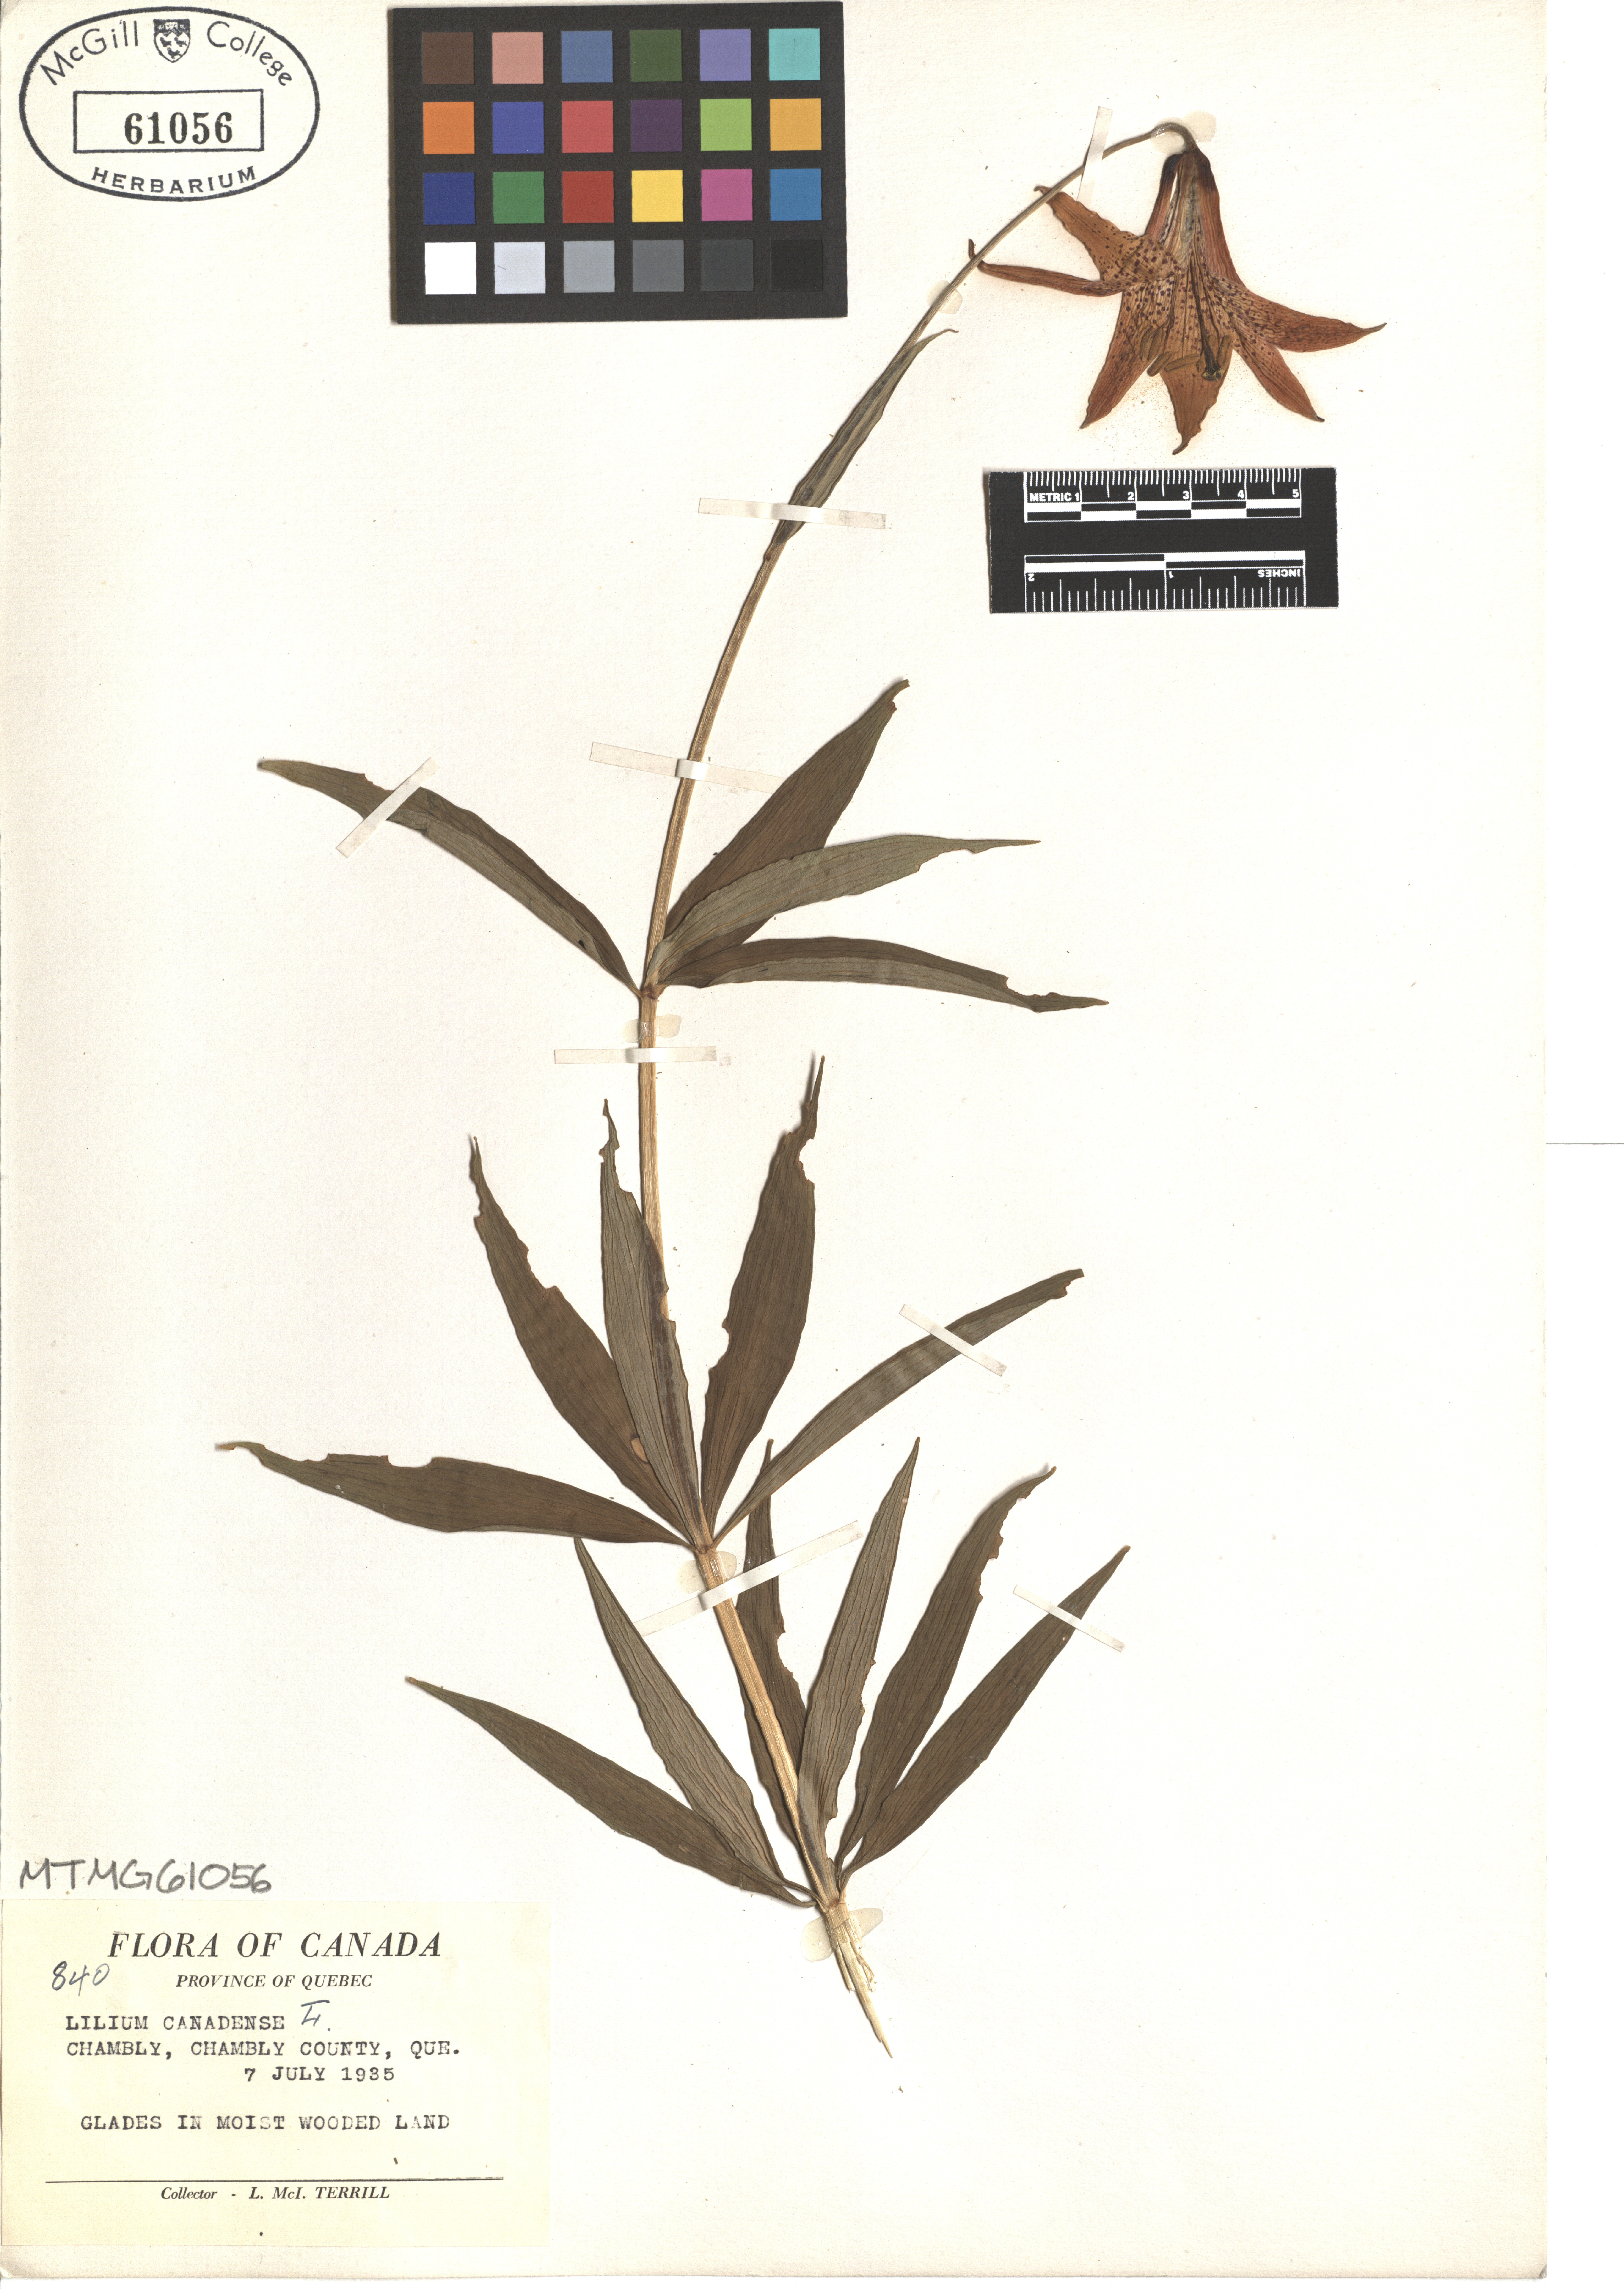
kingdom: Plantae
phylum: Tracheophyta
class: Liliopsida
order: Liliales
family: Liliaceae
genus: Lilium
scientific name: Lilium canadense
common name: Canada lily
